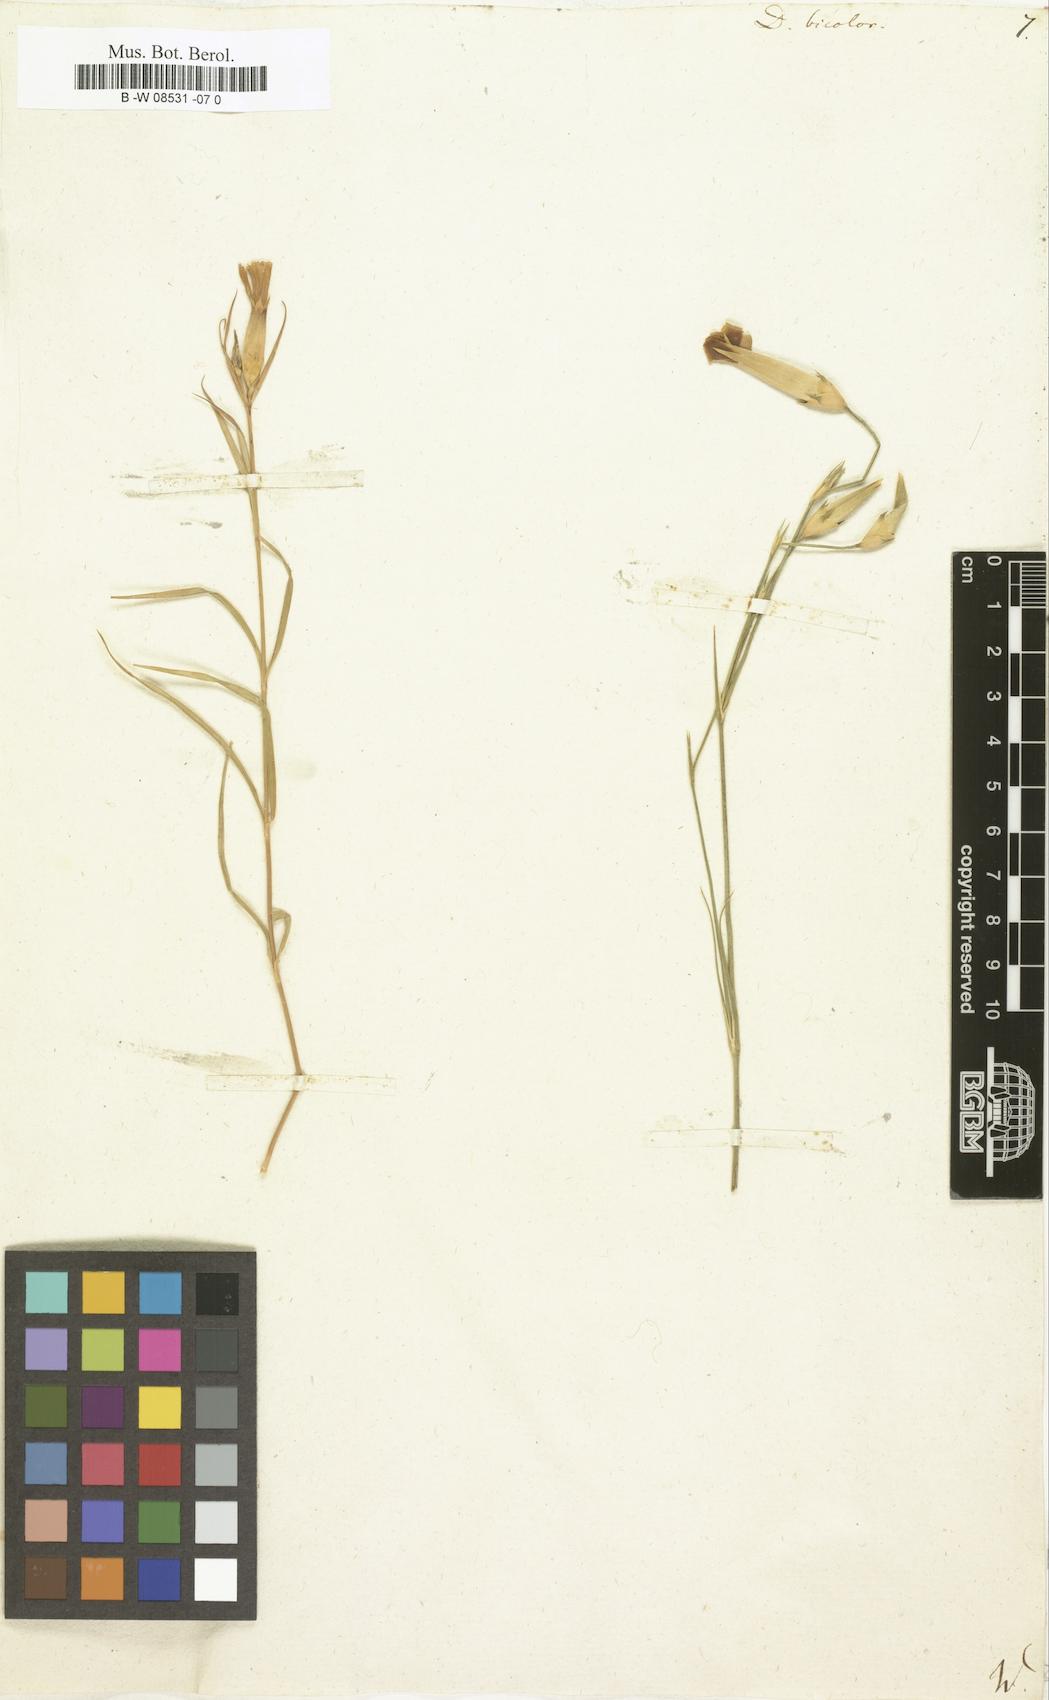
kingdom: Plantae
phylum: Tracheophyta
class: Magnoliopsida
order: Caryophyllales
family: Caryophyllaceae
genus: Dianthus
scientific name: Dianthus bicolor
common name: Bicolour pink
